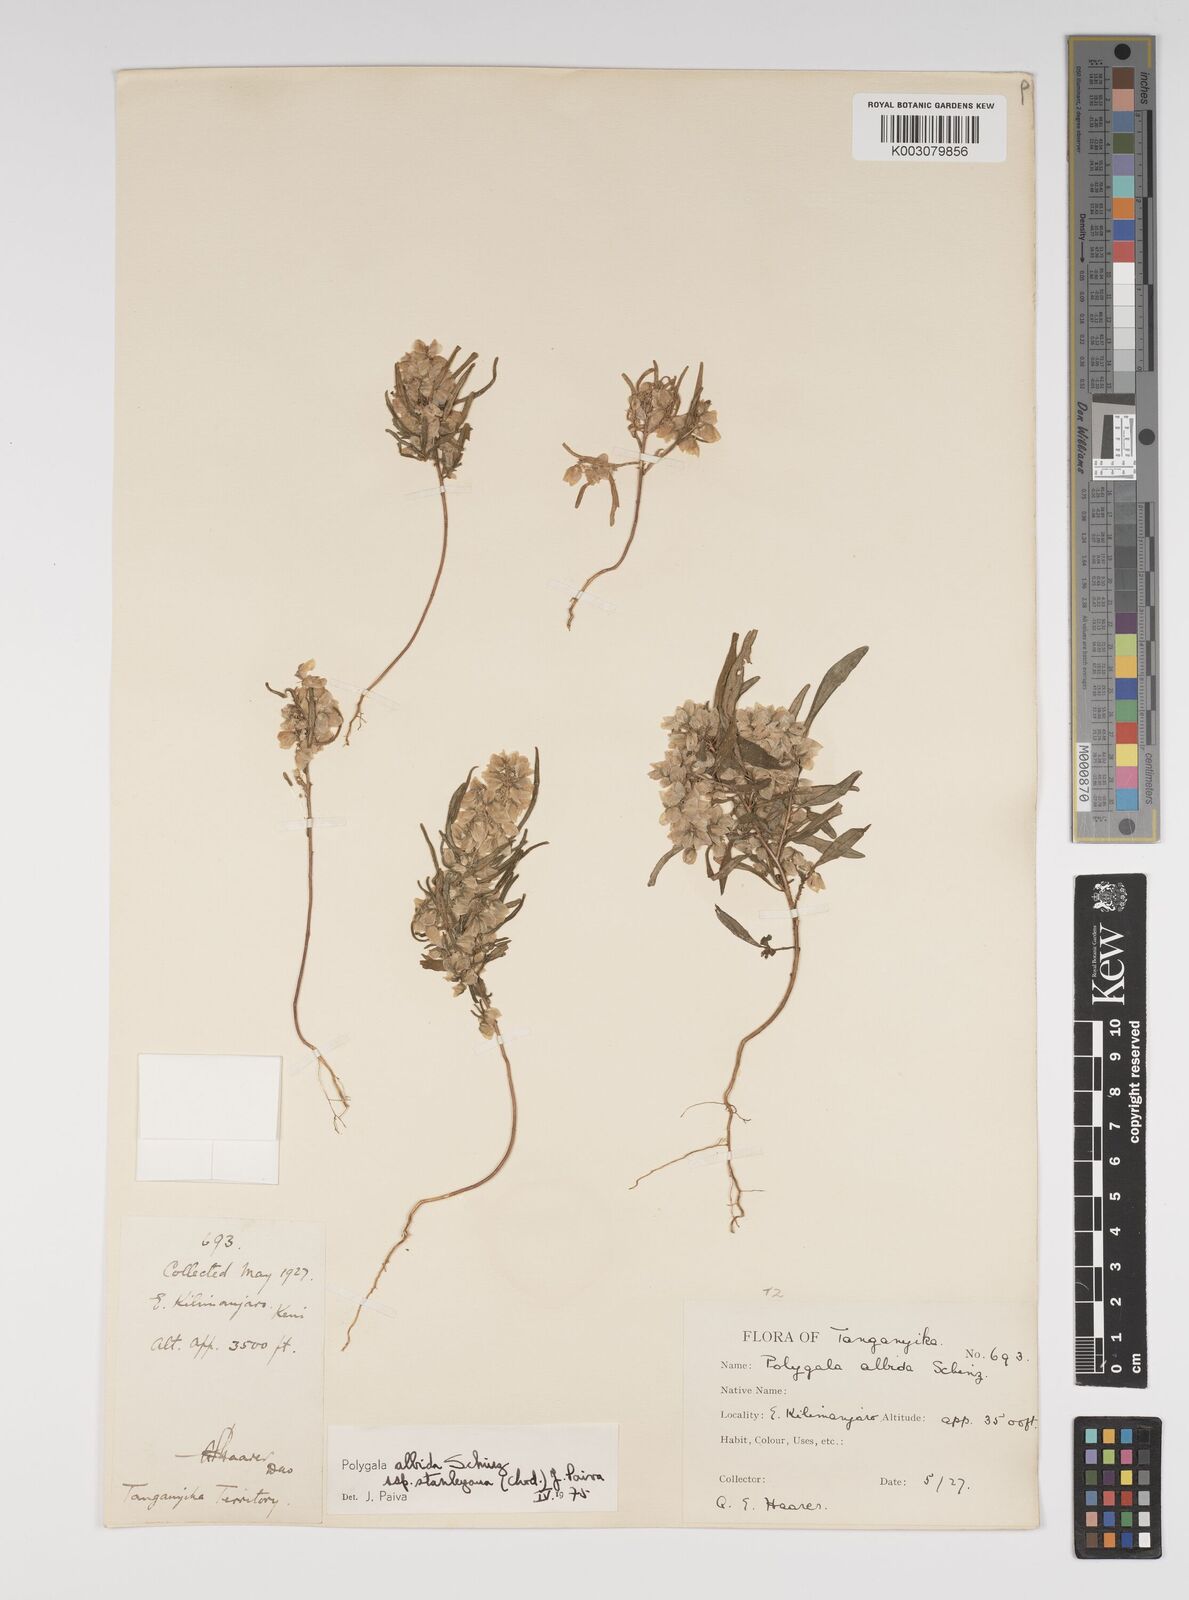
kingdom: Plantae
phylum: Tracheophyta
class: Magnoliopsida
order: Fabales
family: Polygalaceae
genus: Polygala
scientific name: Polygala albida
